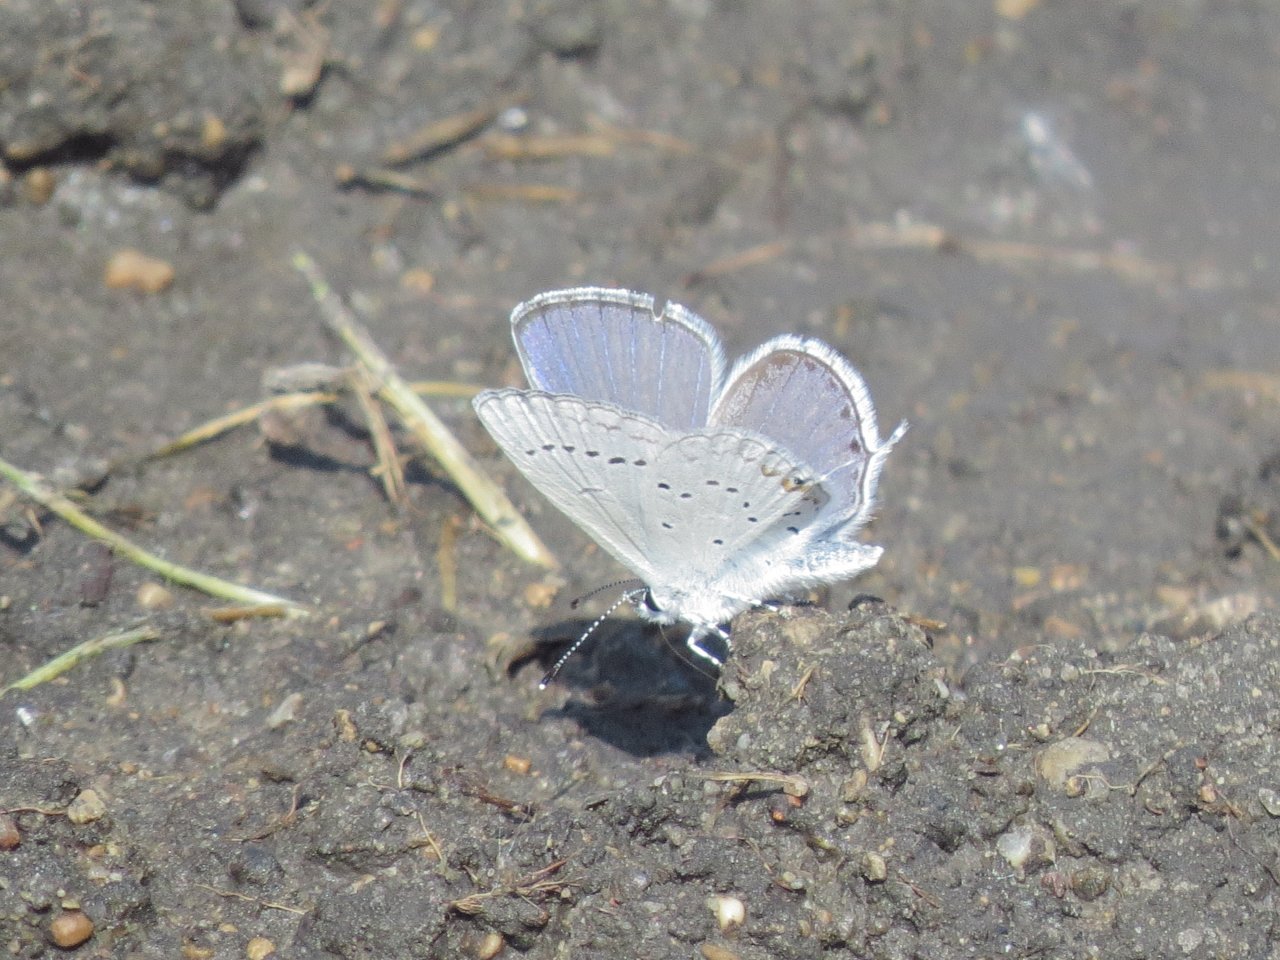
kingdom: Animalia
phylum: Arthropoda
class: Insecta
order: Lepidoptera
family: Lycaenidae
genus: Elkalyce
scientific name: Elkalyce amyntula
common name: Western Tailed-Blue
